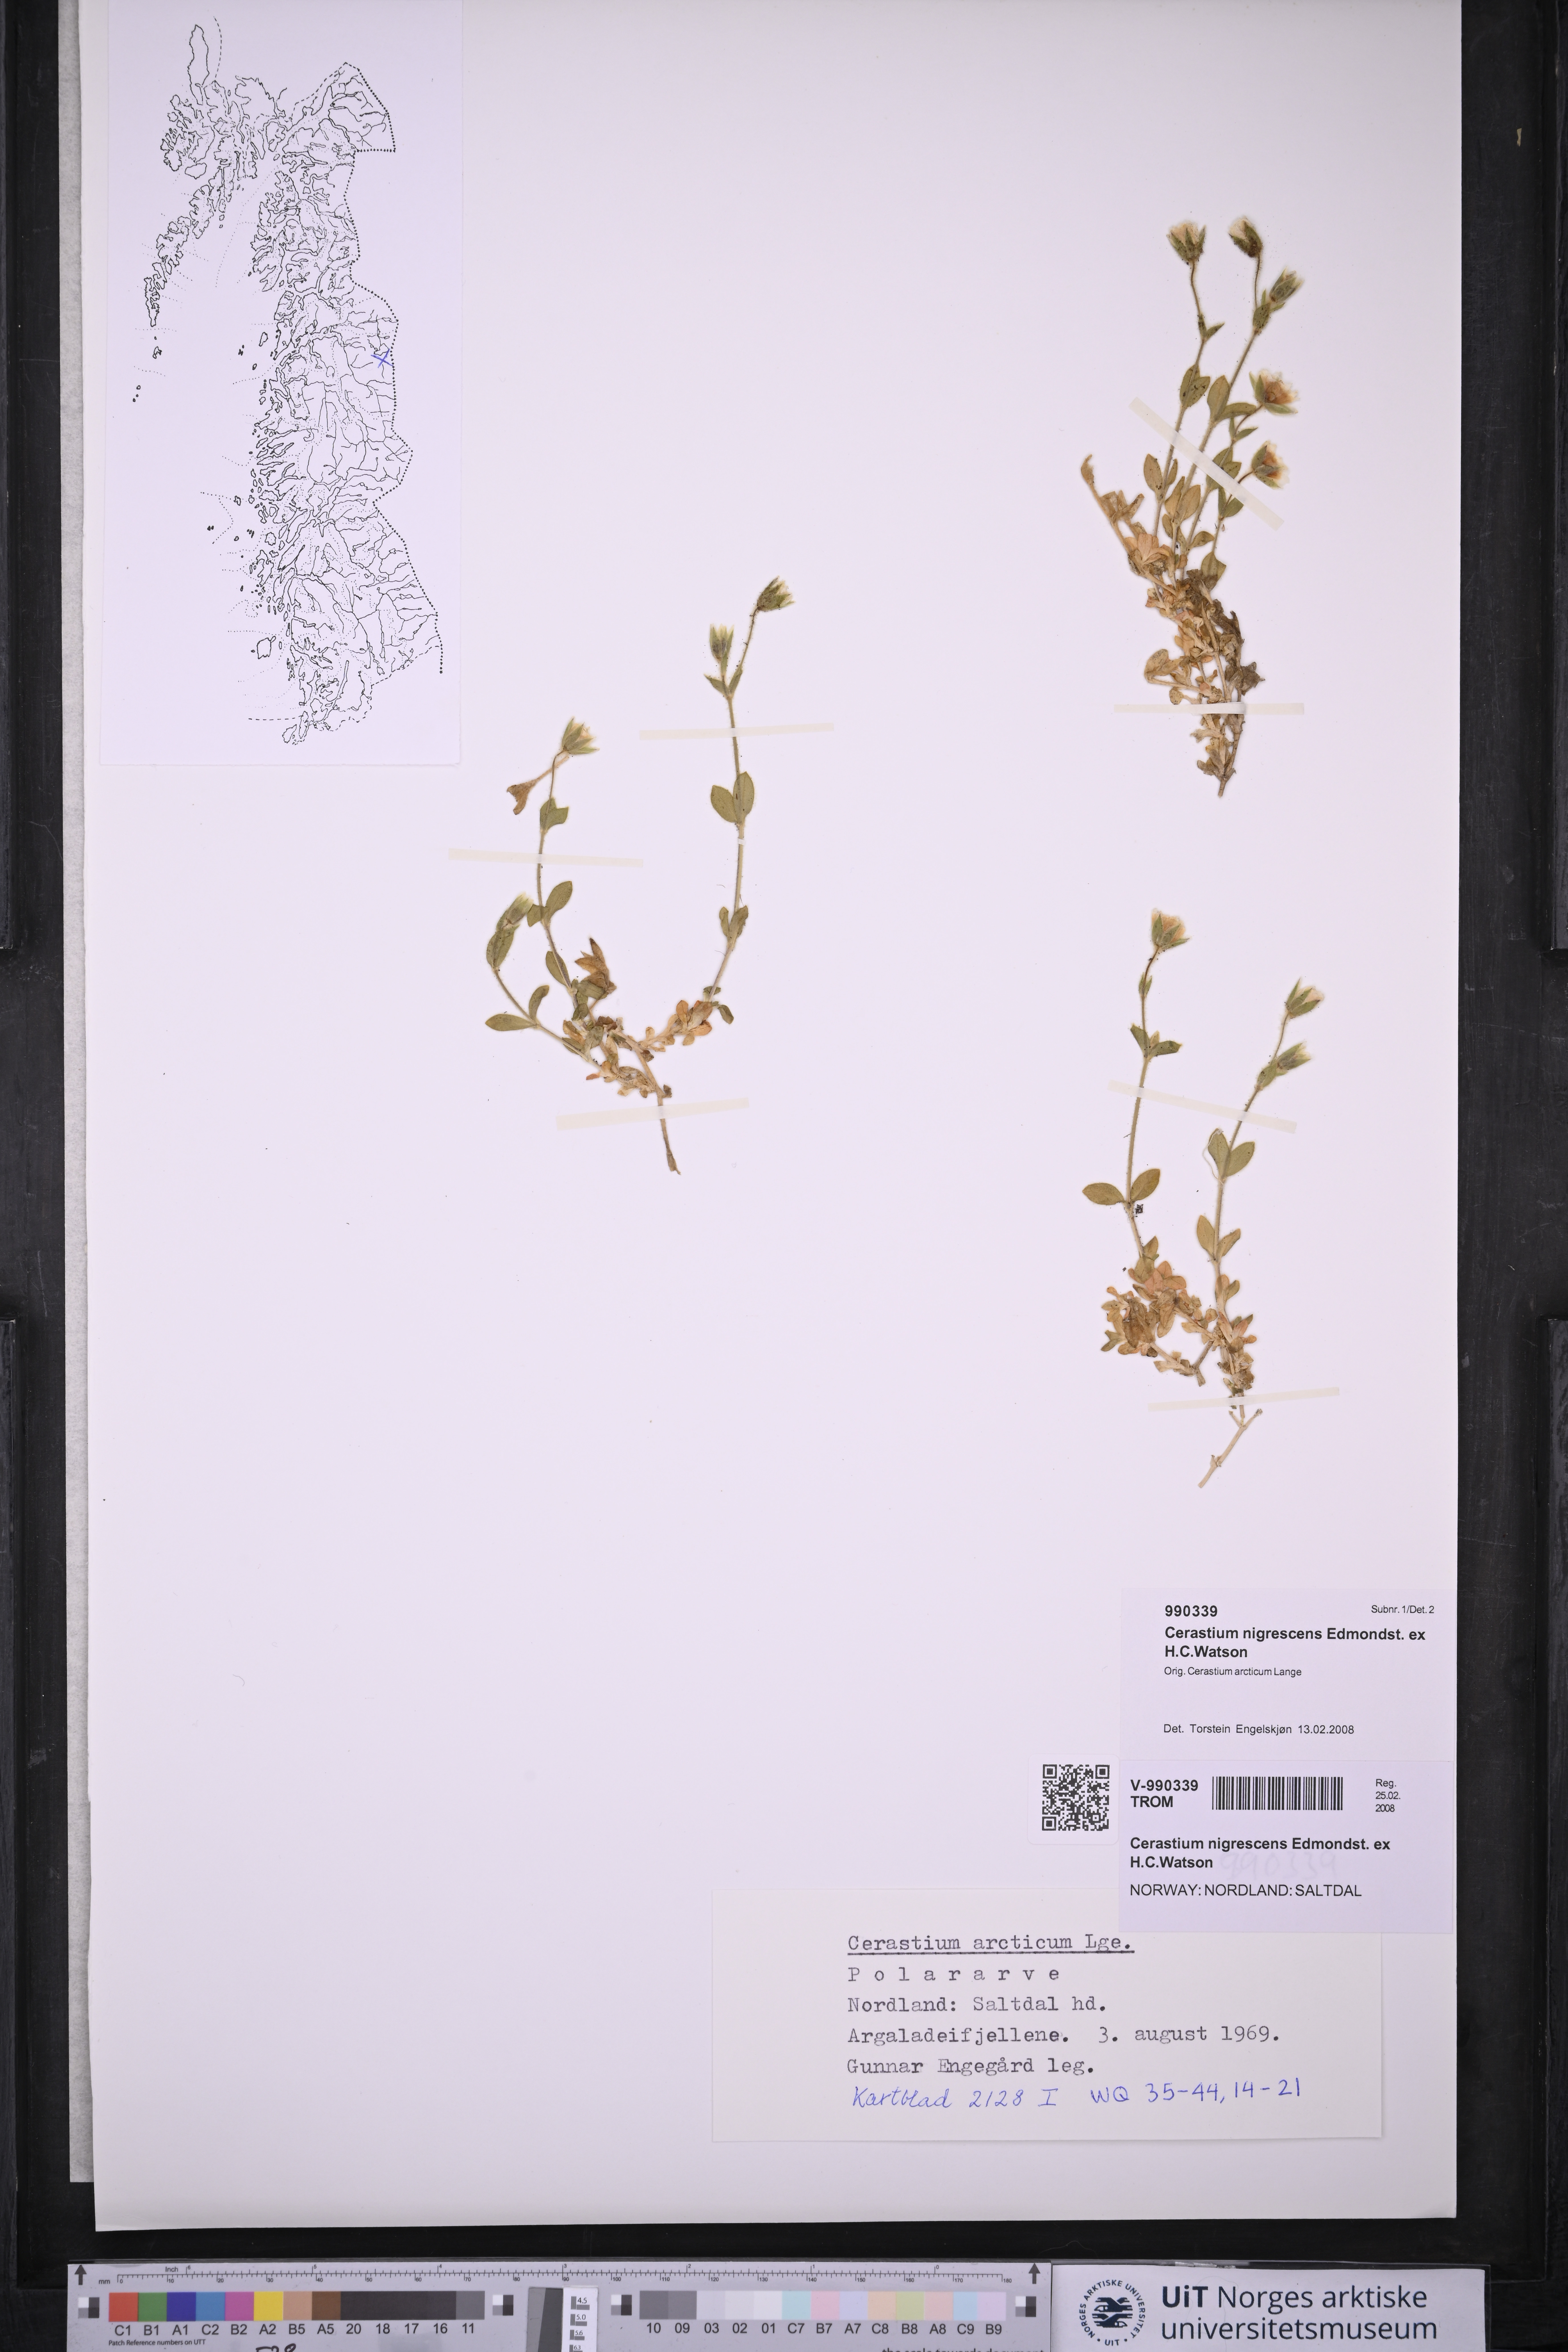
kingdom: Plantae
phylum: Tracheophyta
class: Magnoliopsida
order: Caryophyllales
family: Caryophyllaceae
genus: Cerastium
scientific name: Cerastium nigrescens
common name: Shetland mouse-ear
